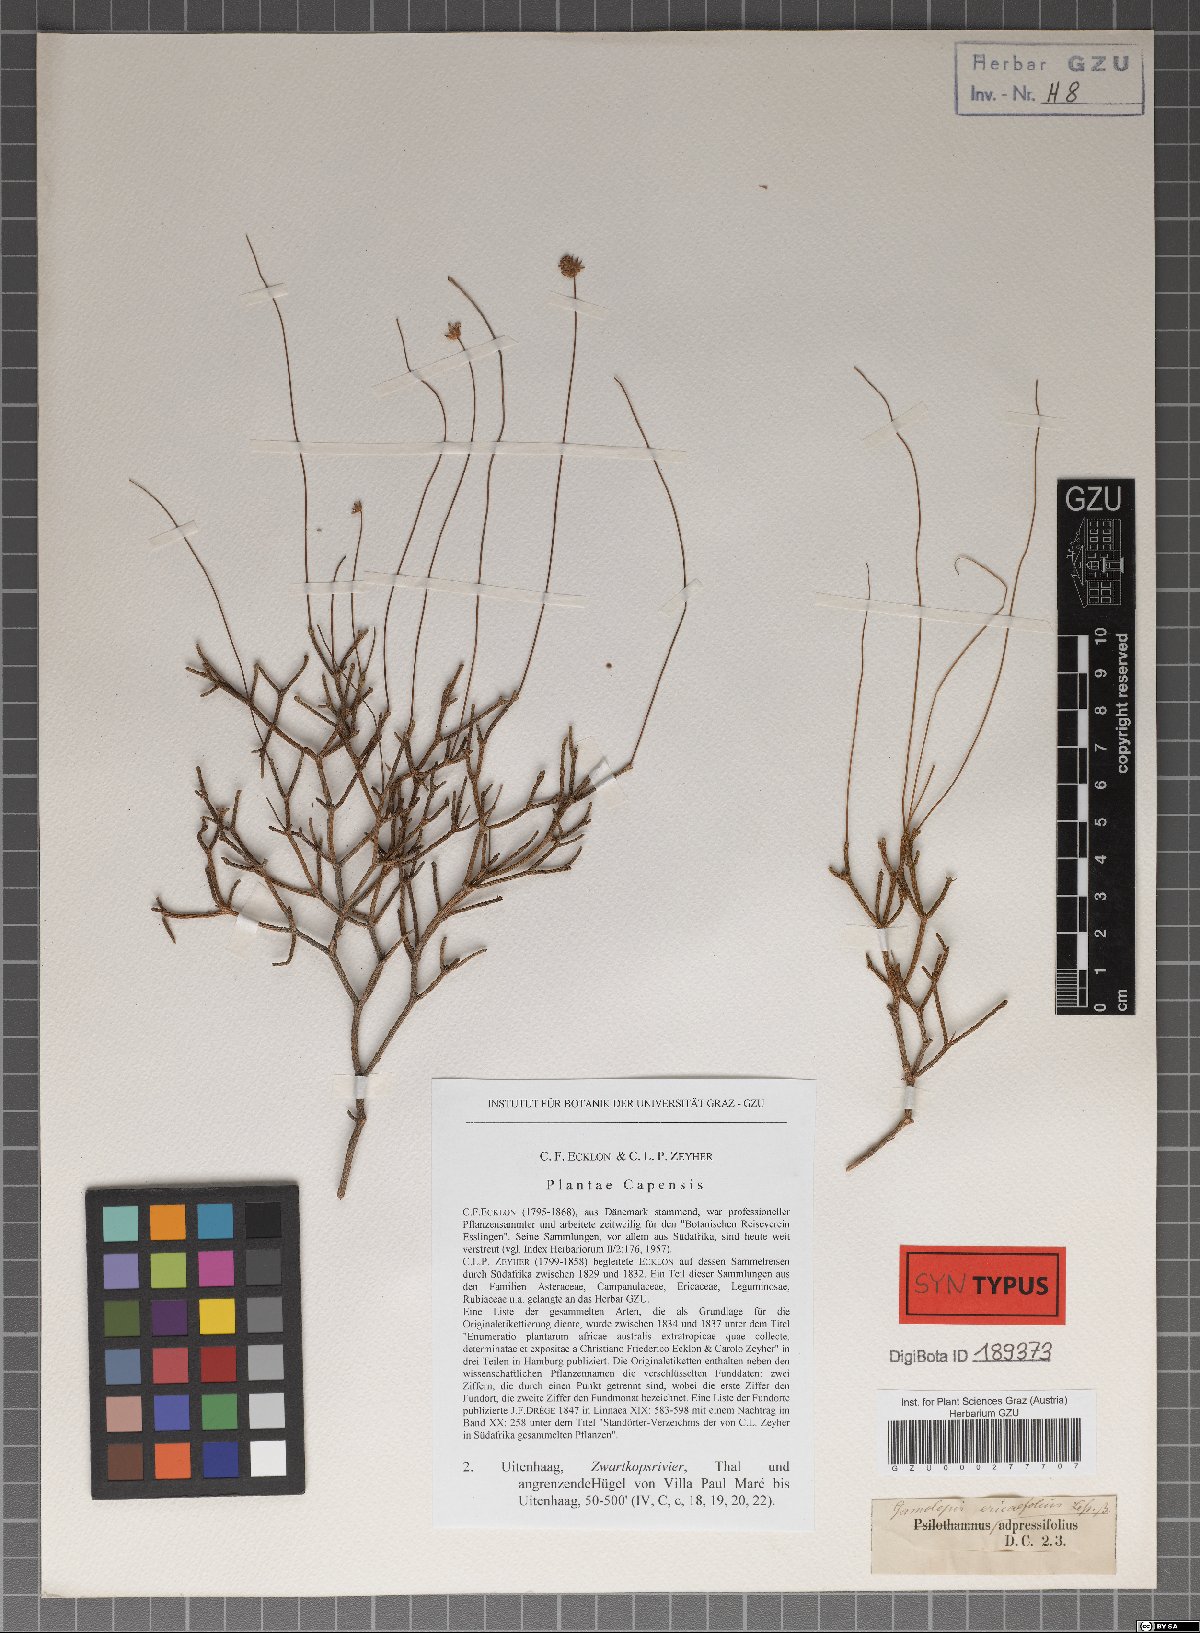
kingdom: Plantae
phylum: Tracheophyta
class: Magnoliopsida
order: Asterales
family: Asteraceae
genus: Euryops
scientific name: Euryops ericoides
